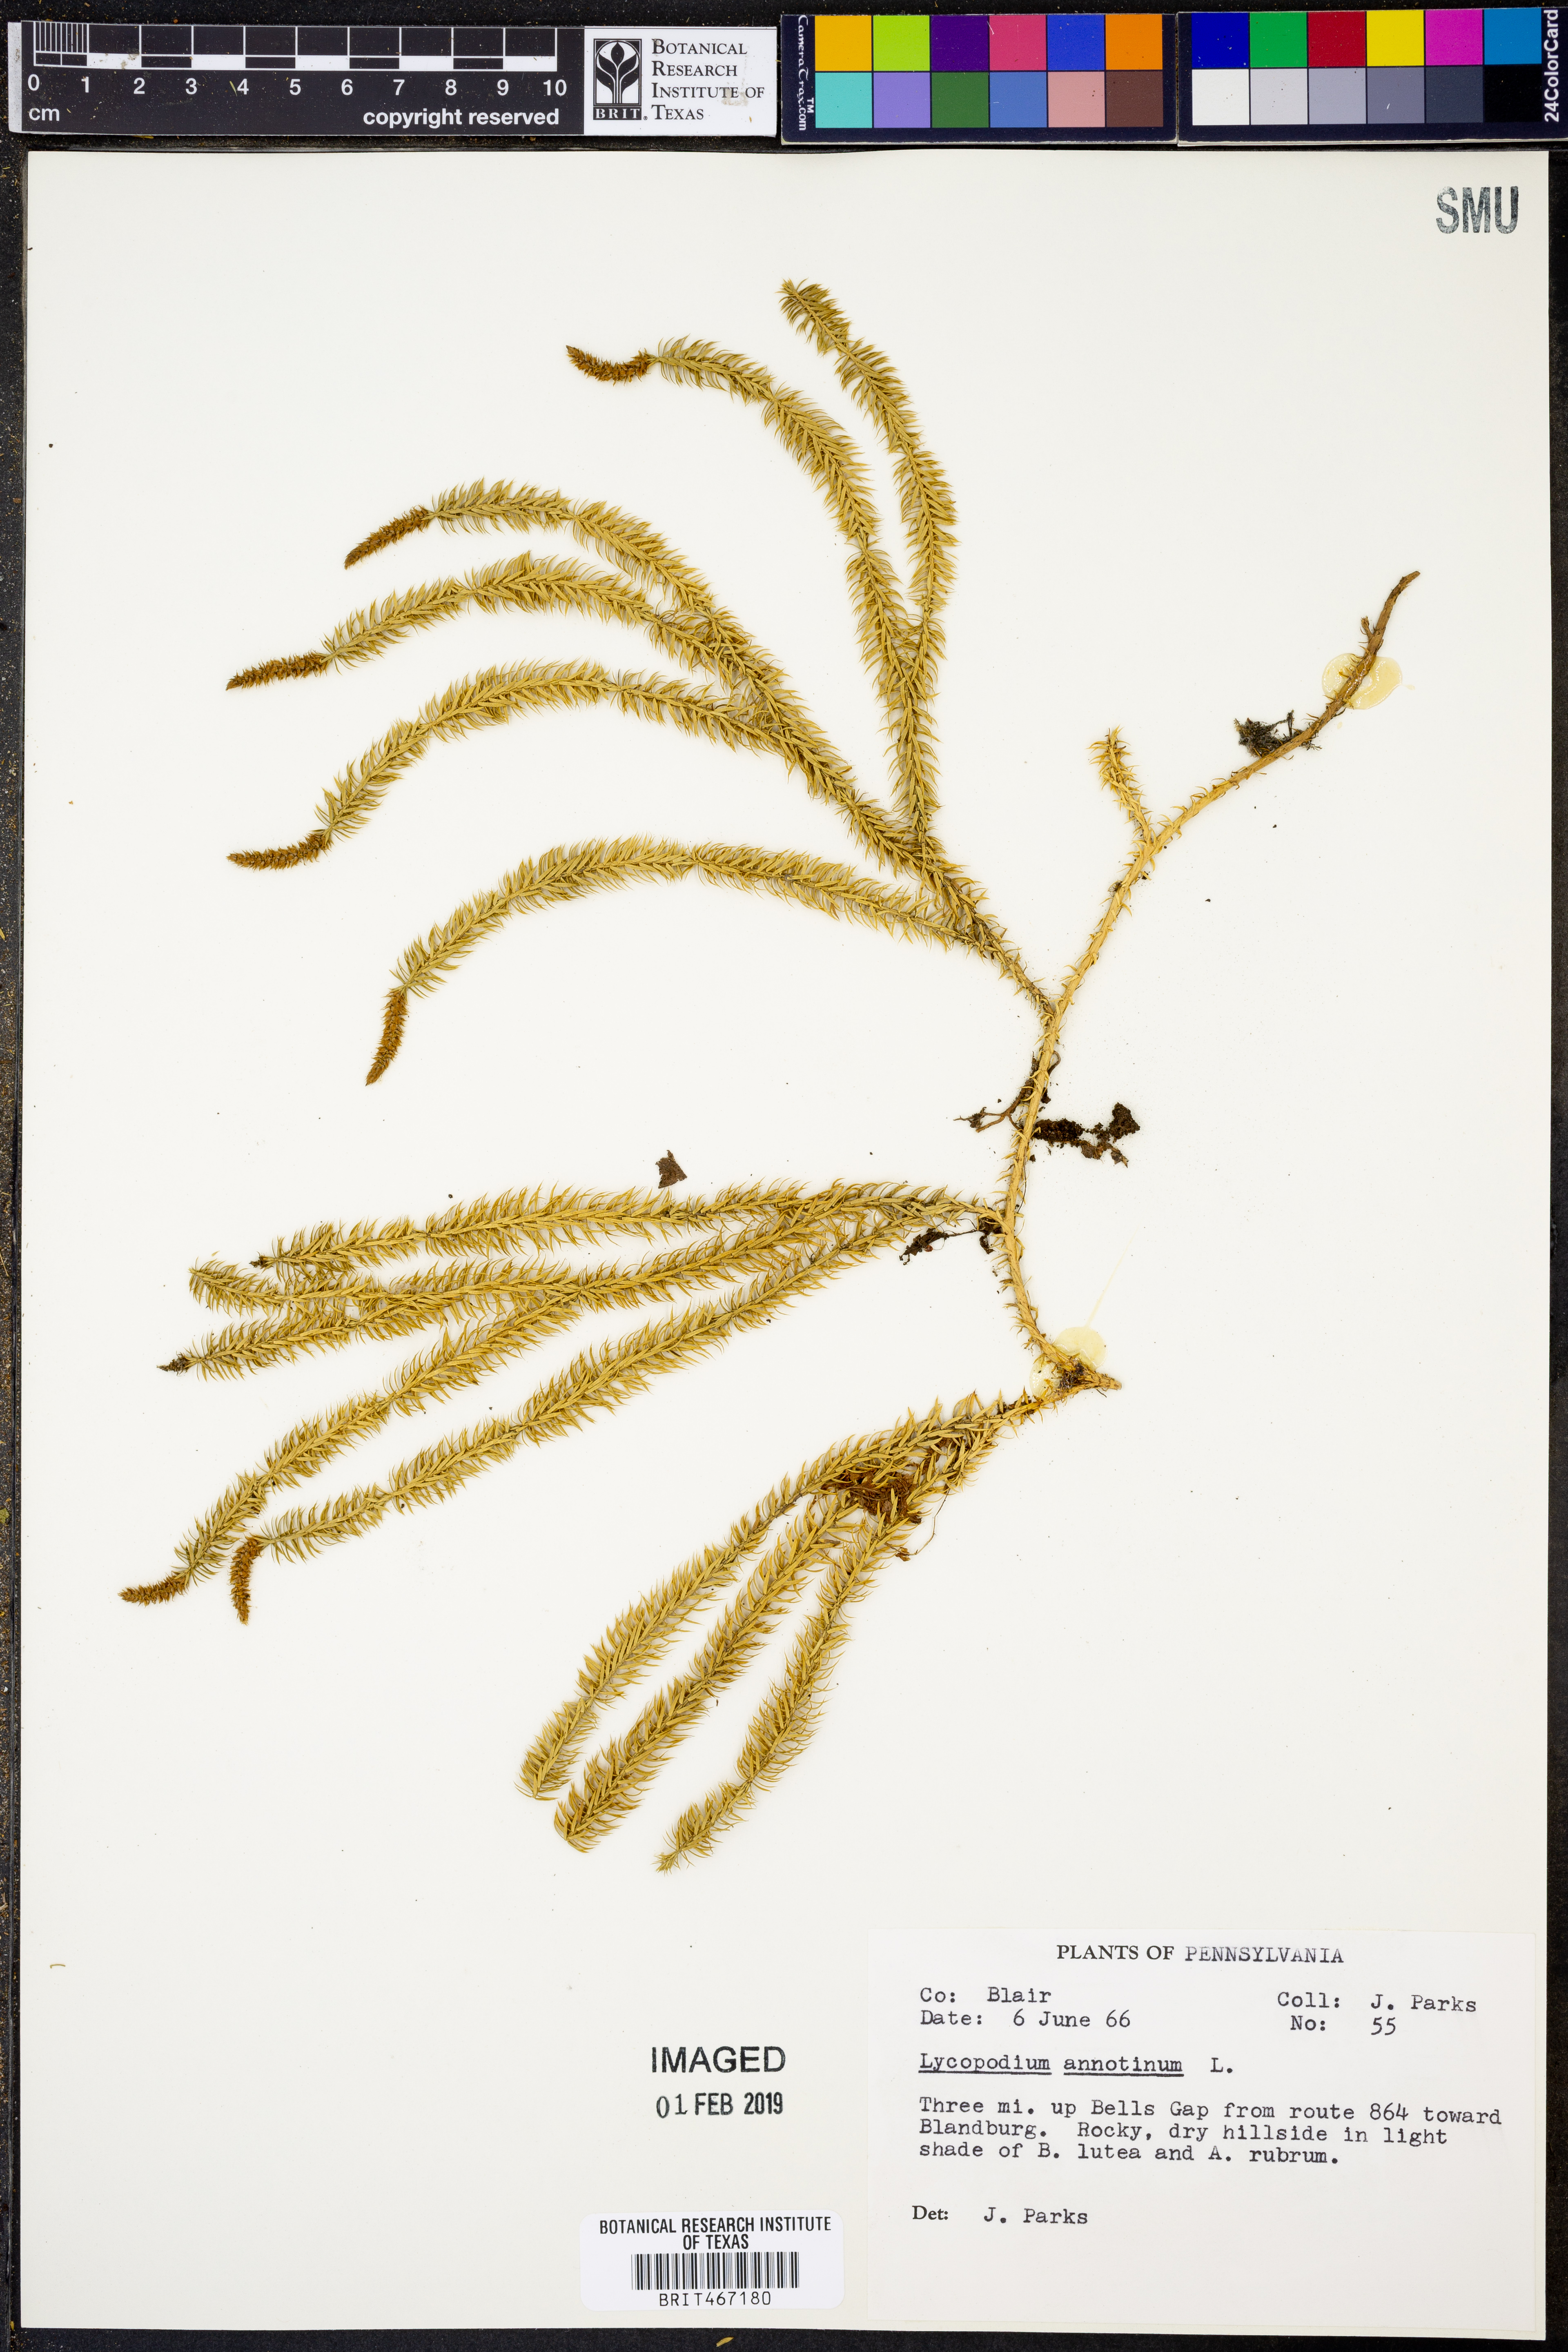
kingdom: Plantae
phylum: Tracheophyta
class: Lycopodiopsida
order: Lycopodiales
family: Lycopodiaceae
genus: Spinulum
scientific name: Spinulum annotinum
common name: Interrupted club-moss
